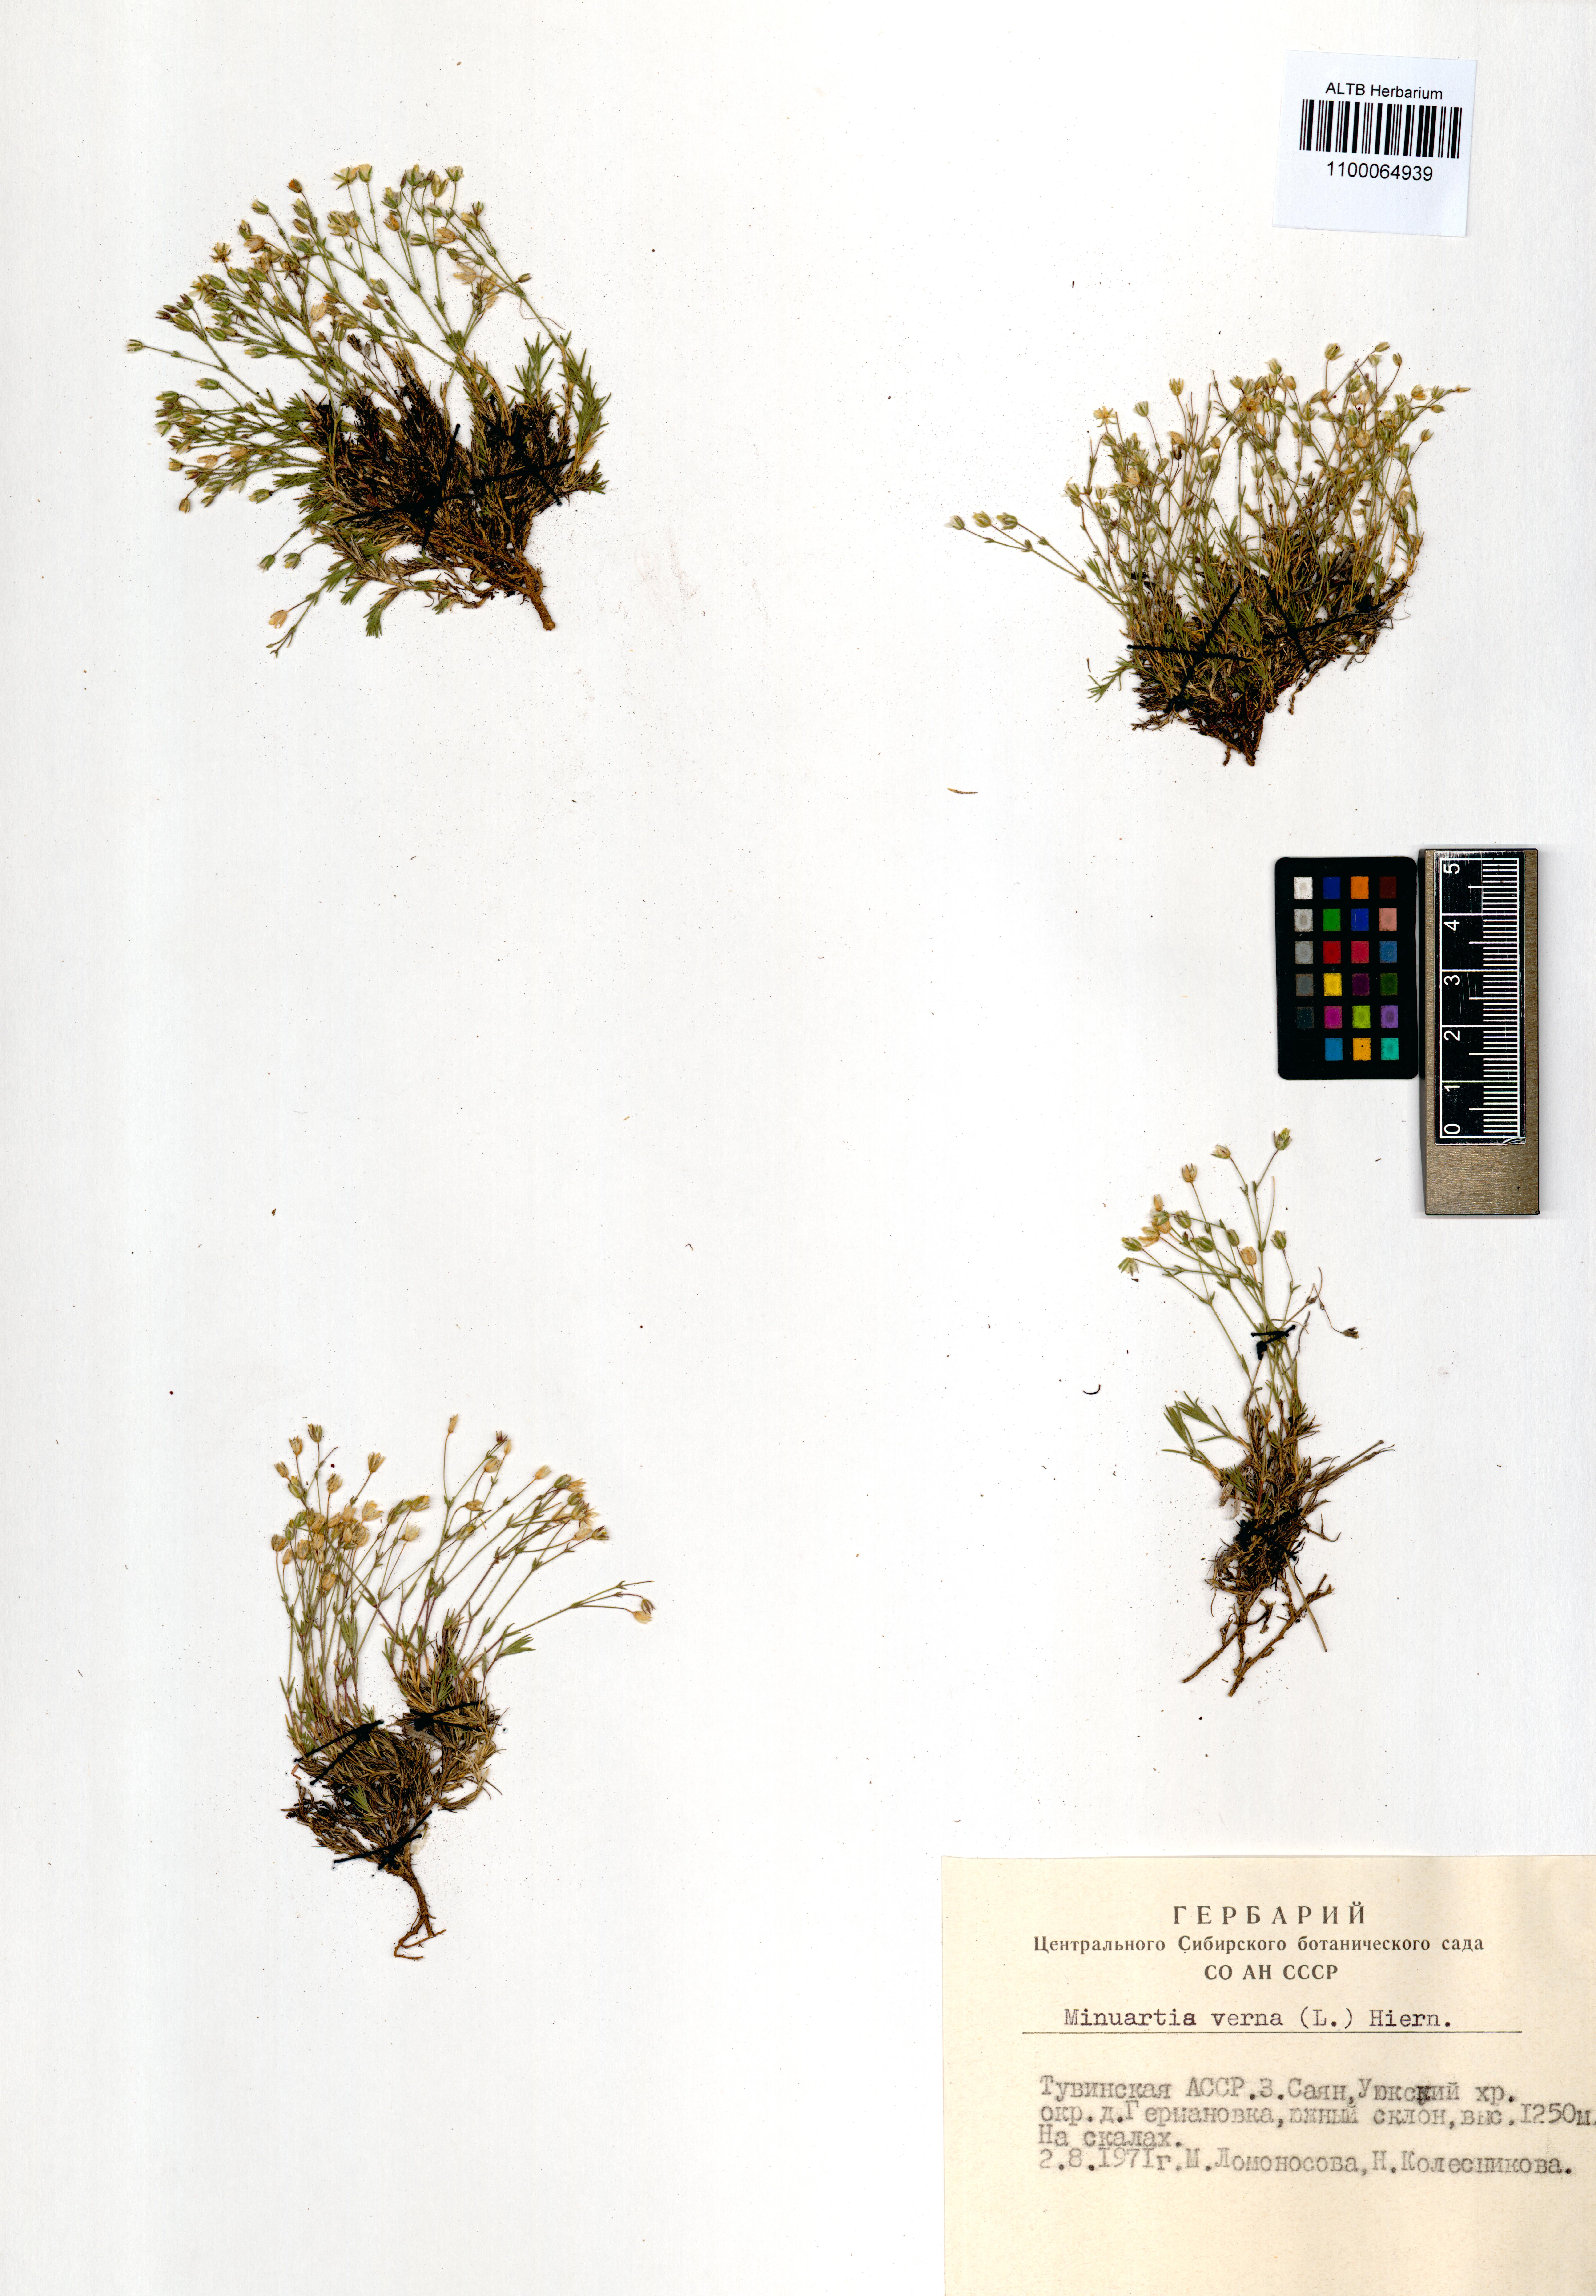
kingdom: Plantae
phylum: Tracheophyta
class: Magnoliopsida
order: Caryophyllales
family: Caryophyllaceae
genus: Sabulina
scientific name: Sabulina verna
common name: Spring sandwort
